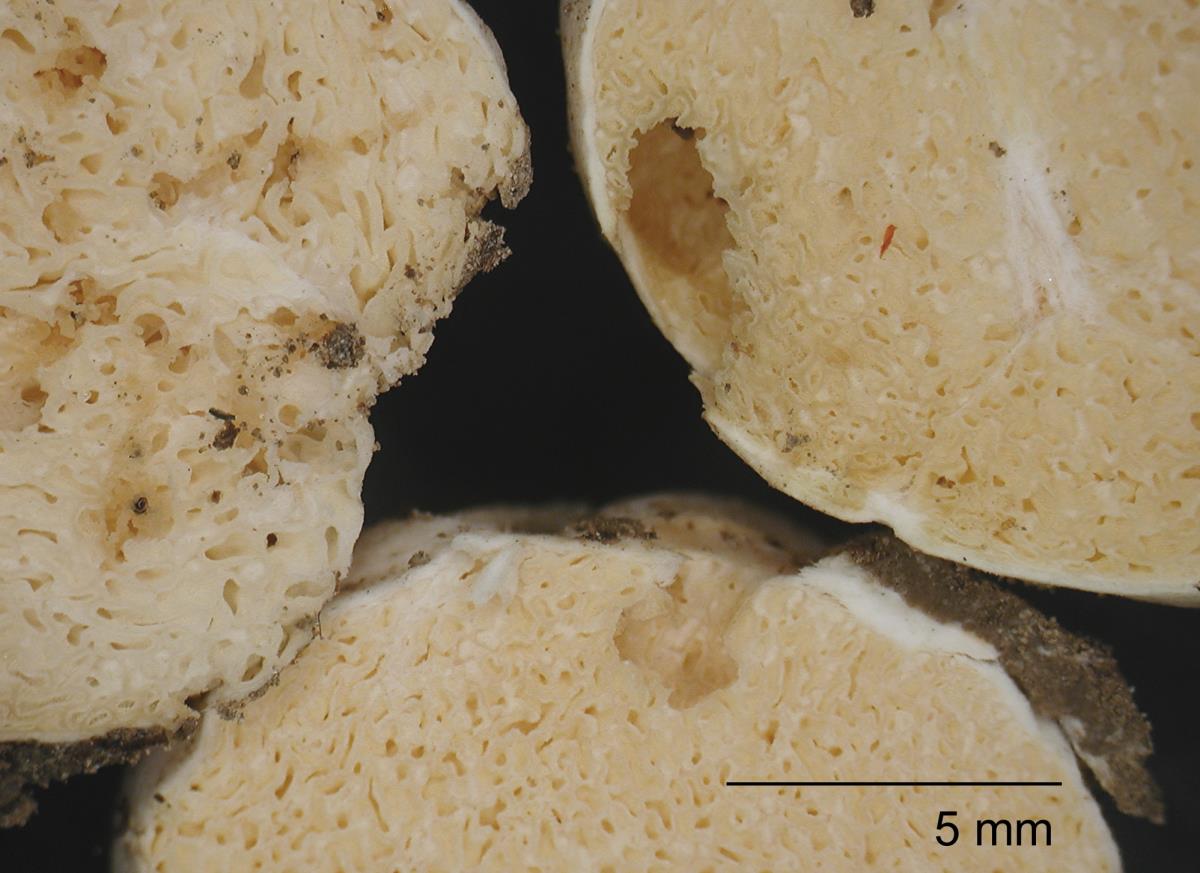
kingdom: Fungi
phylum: Basidiomycota
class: Agaricomycetes
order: Russulales
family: Russulaceae
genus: Russula
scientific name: Russula osphranticarpa
